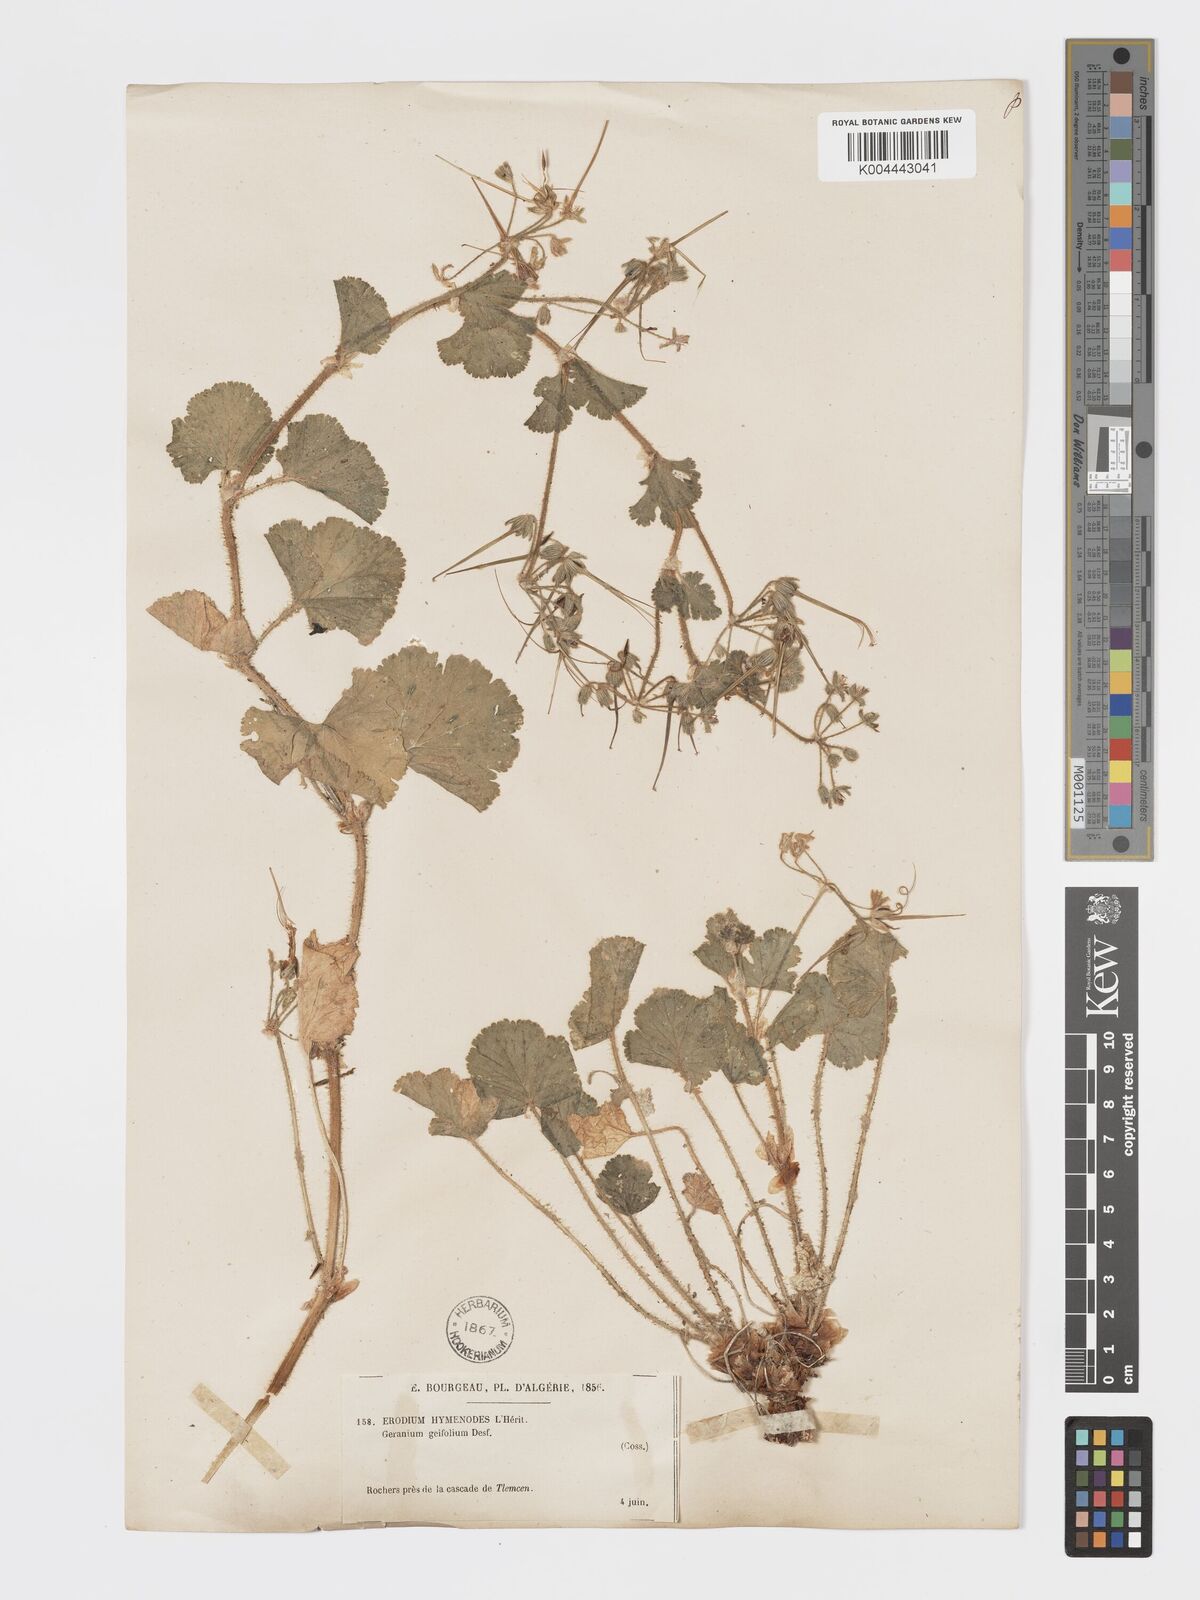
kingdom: Plantae
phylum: Tracheophyta
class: Magnoliopsida
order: Geraniales
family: Geraniaceae
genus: Erodium
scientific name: Erodium trifolium
